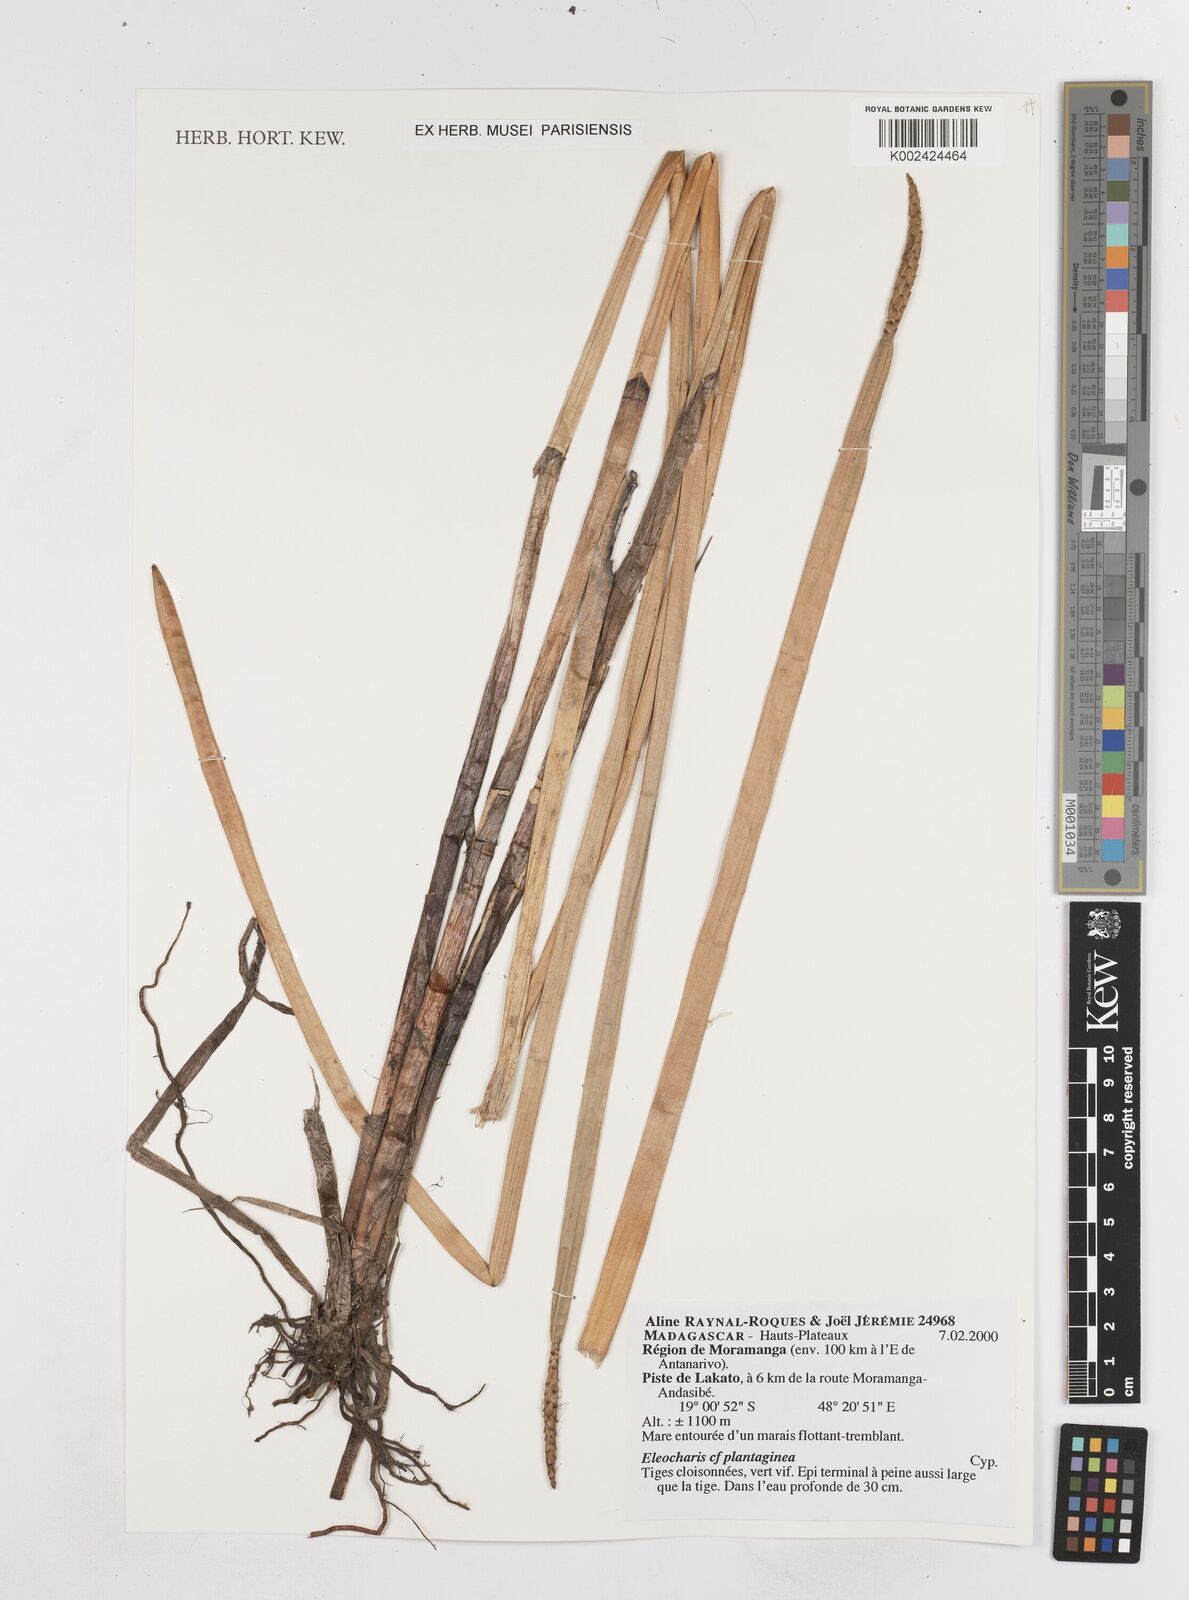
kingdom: Plantae
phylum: Tracheophyta
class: Liliopsida
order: Poales
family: Cyperaceae
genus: Eleocharis
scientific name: Eleocharis dulcis
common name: Chinese water chestnut
